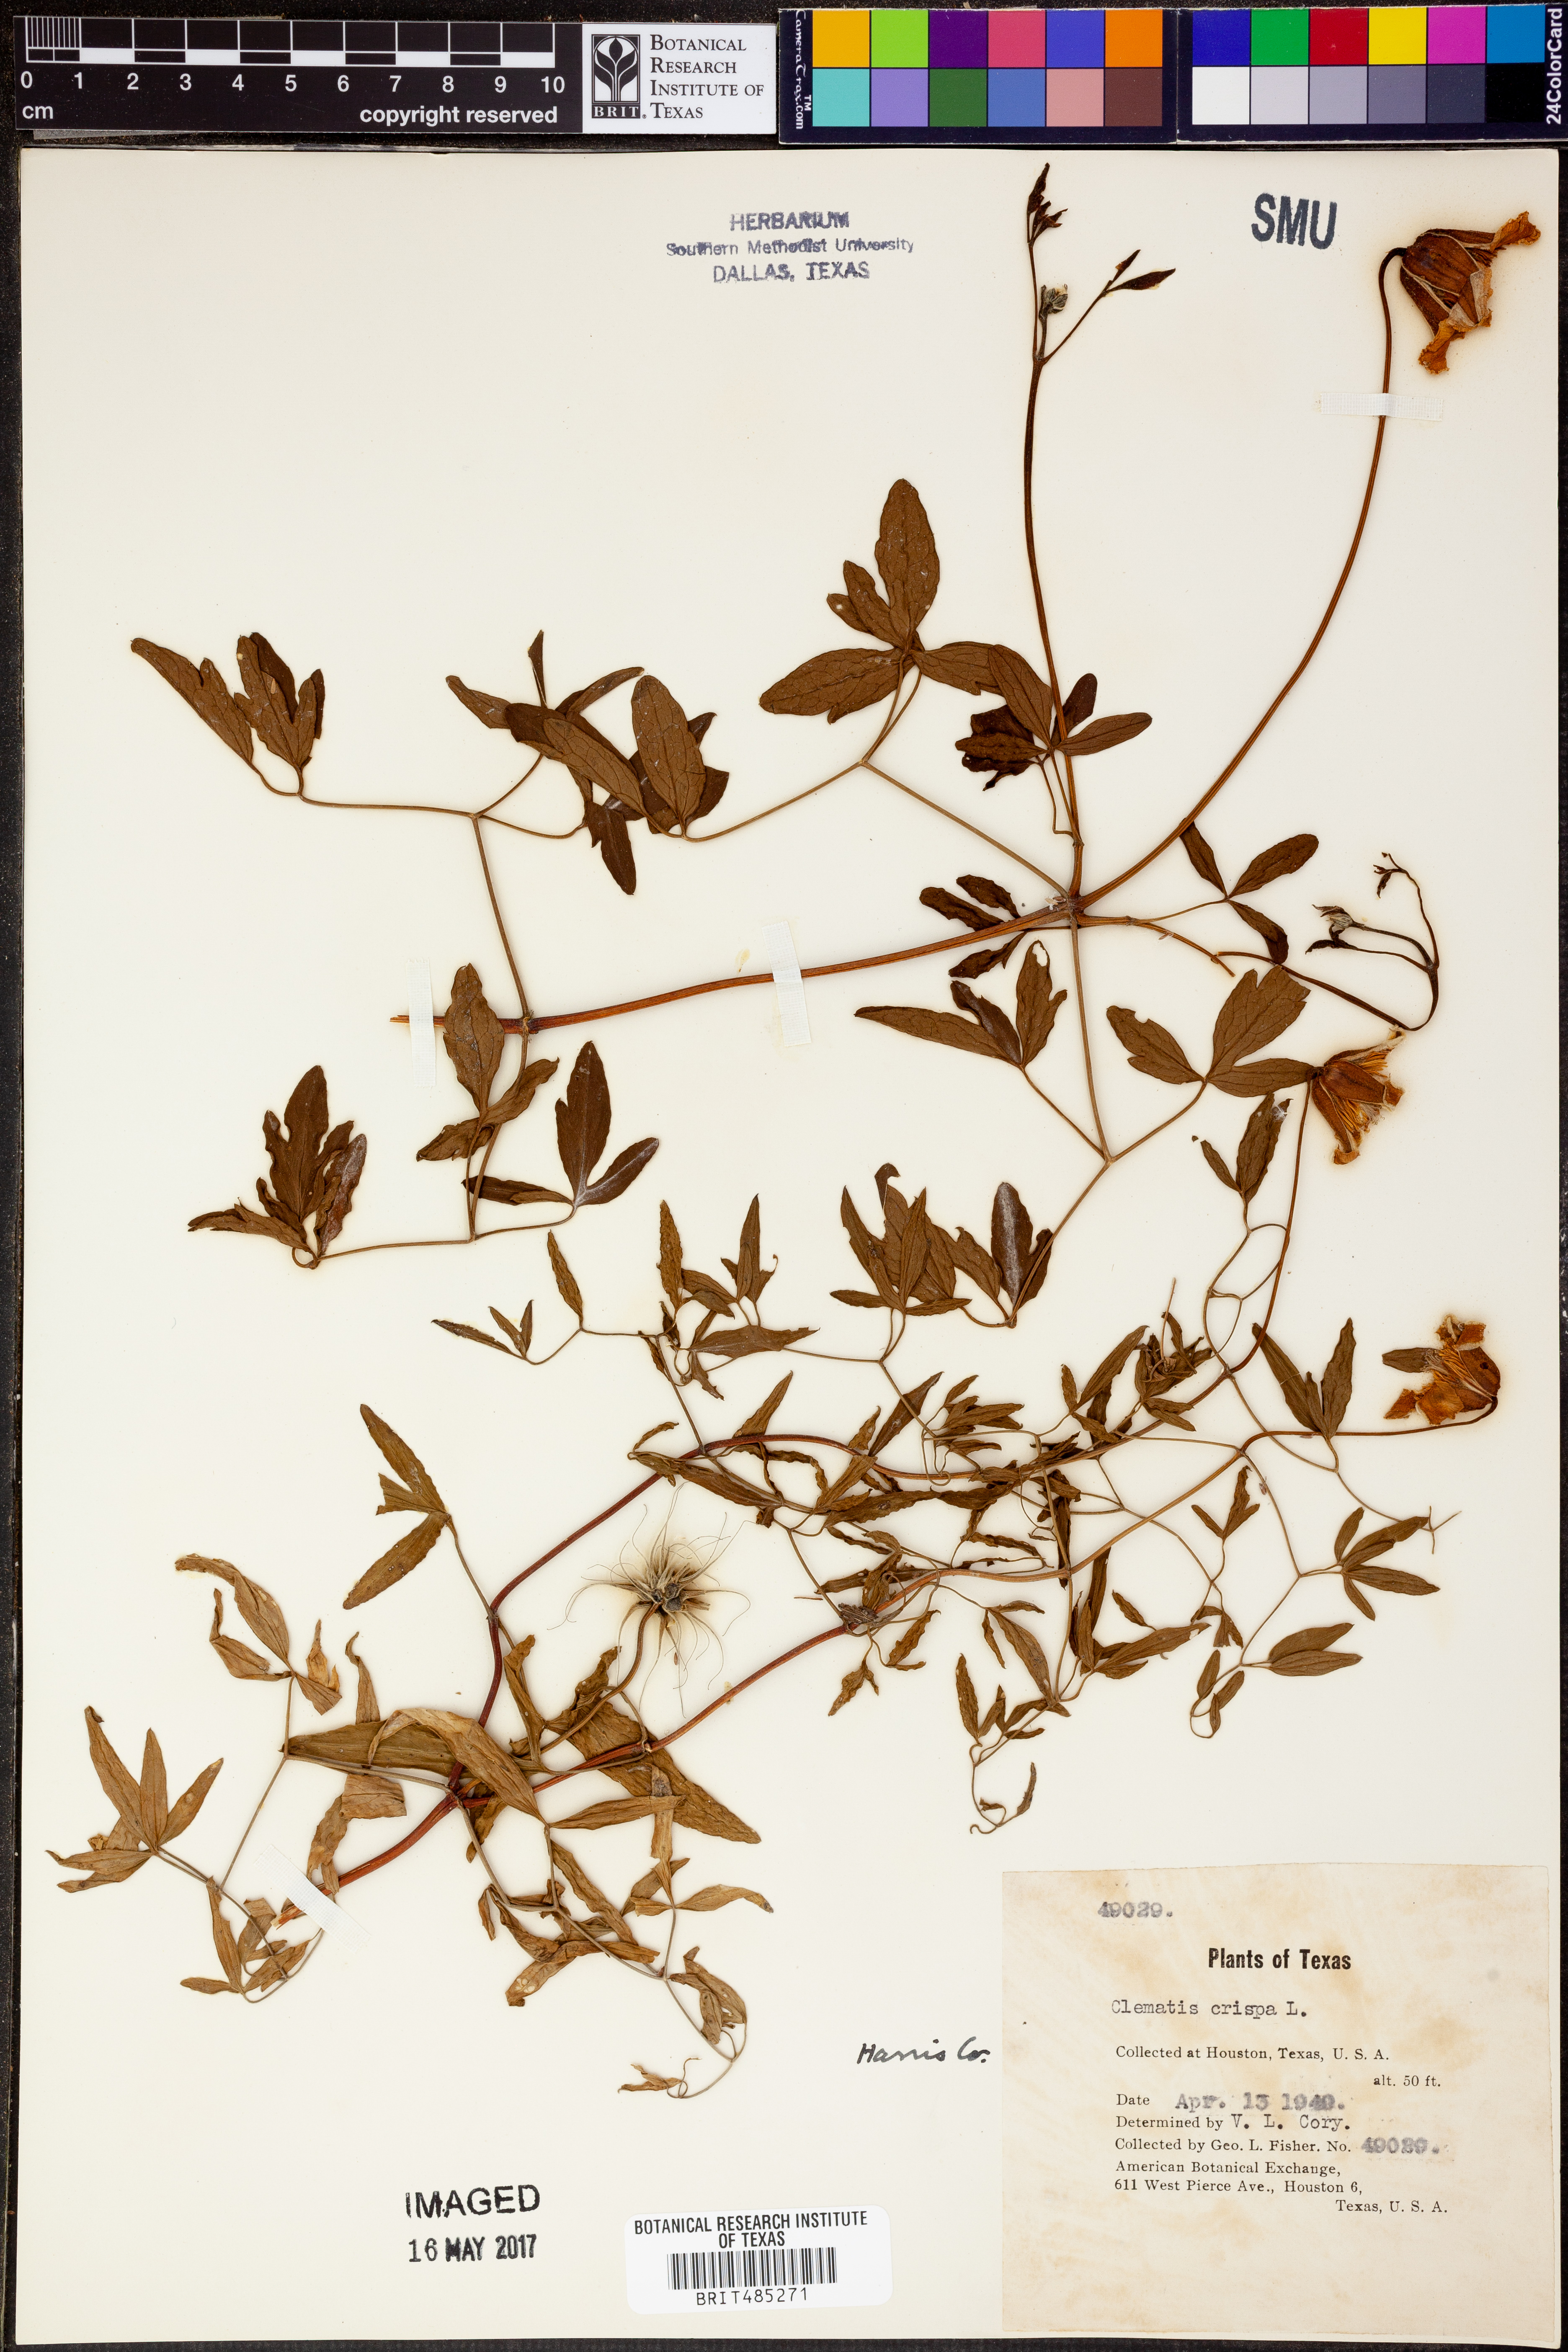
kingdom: Plantae
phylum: Tracheophyta
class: Magnoliopsida
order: Ranunculales
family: Ranunculaceae
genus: Clematis
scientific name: Clematis crispa
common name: Curly clematis
